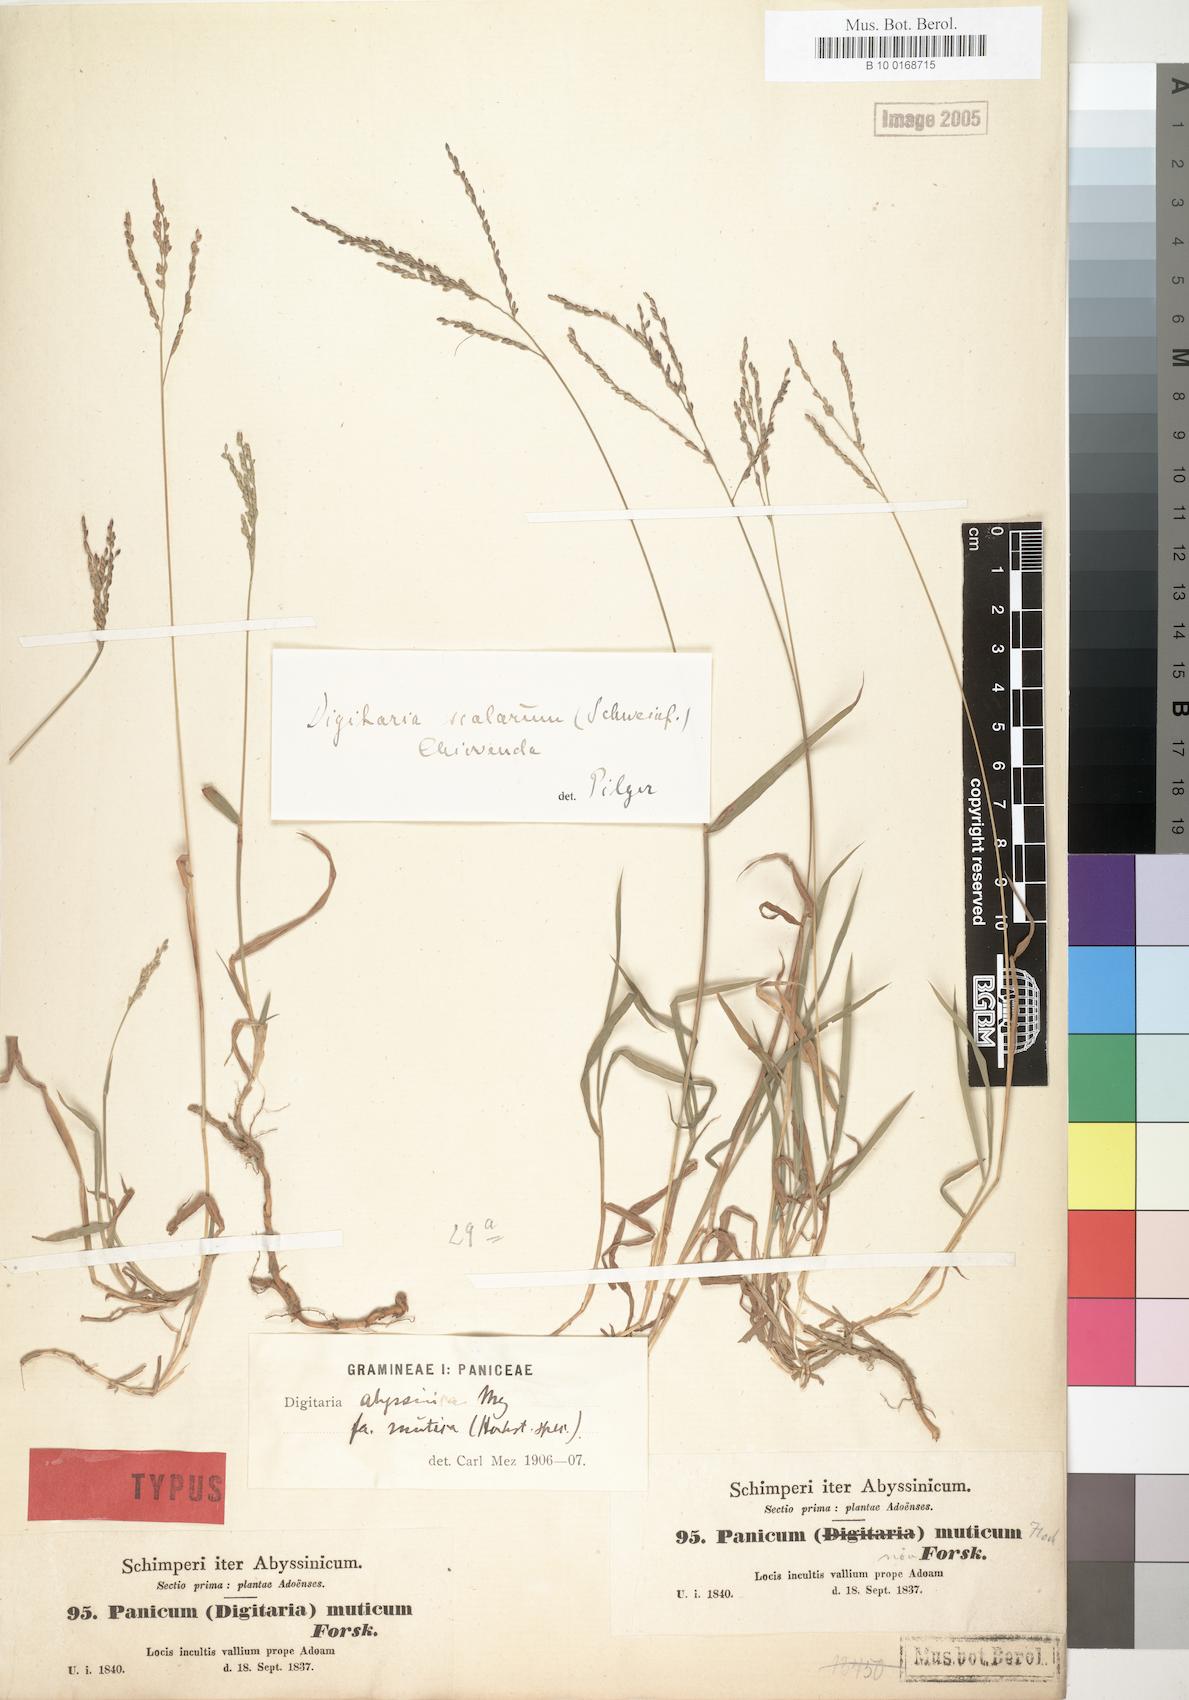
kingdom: Plantae
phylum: Tracheophyta
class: Liliopsida
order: Poales
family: Poaceae
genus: Urochloa
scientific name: Urochloa mutica
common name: Para grass
